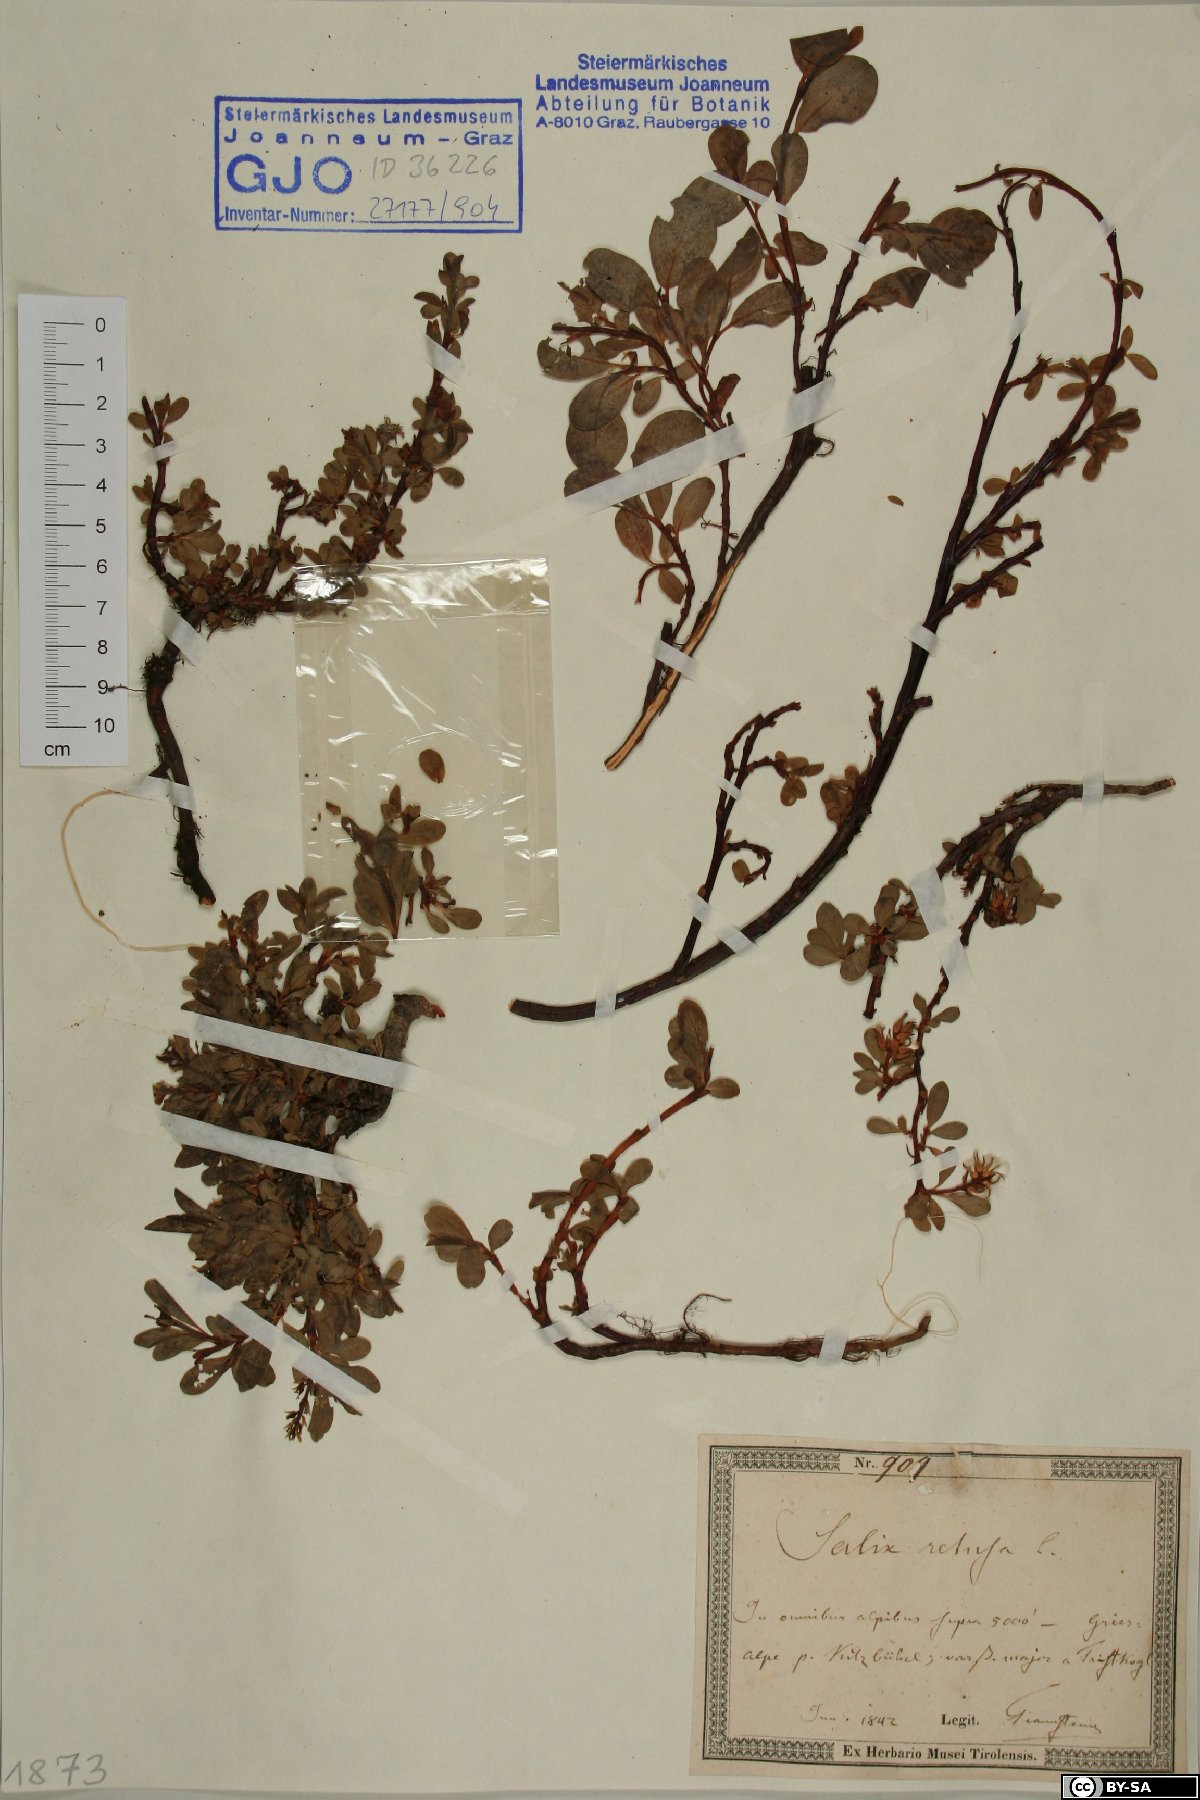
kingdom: Plantae
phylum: Tracheophyta
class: Magnoliopsida
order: Malpighiales
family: Salicaceae
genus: Salix
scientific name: Salix retusa
